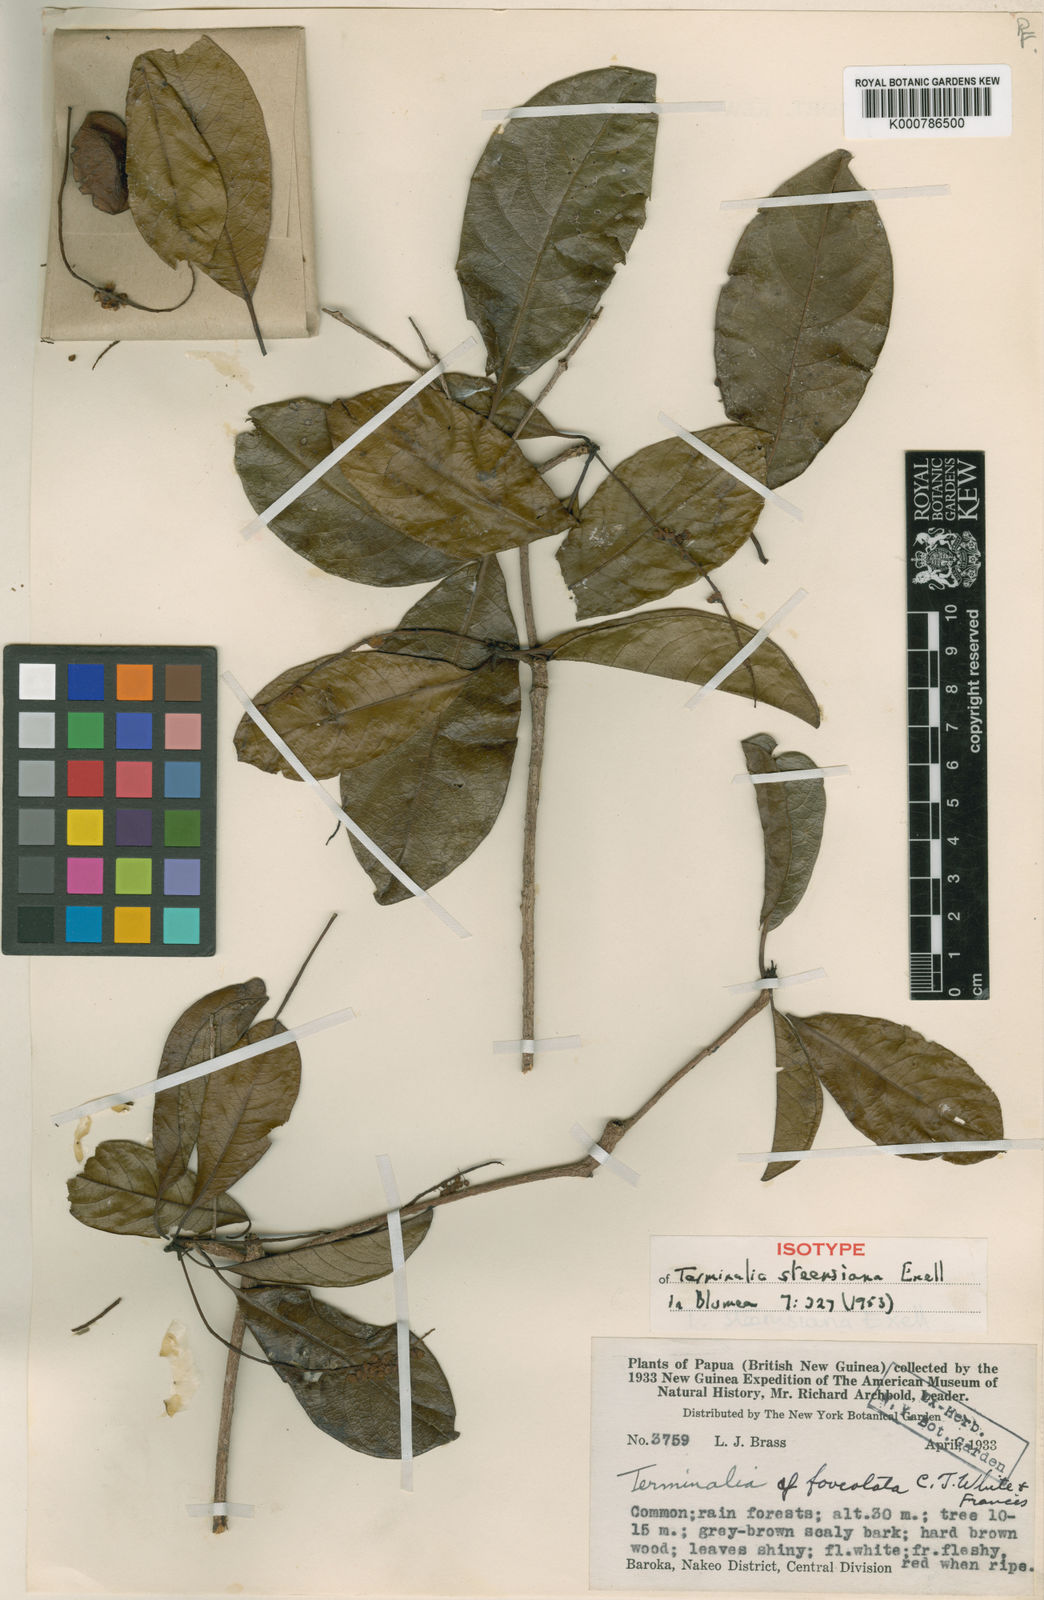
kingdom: Plantae
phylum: Tracheophyta
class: Magnoliopsida
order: Myrtales
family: Combretaceae
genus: Terminalia
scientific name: Terminalia steenisiana
